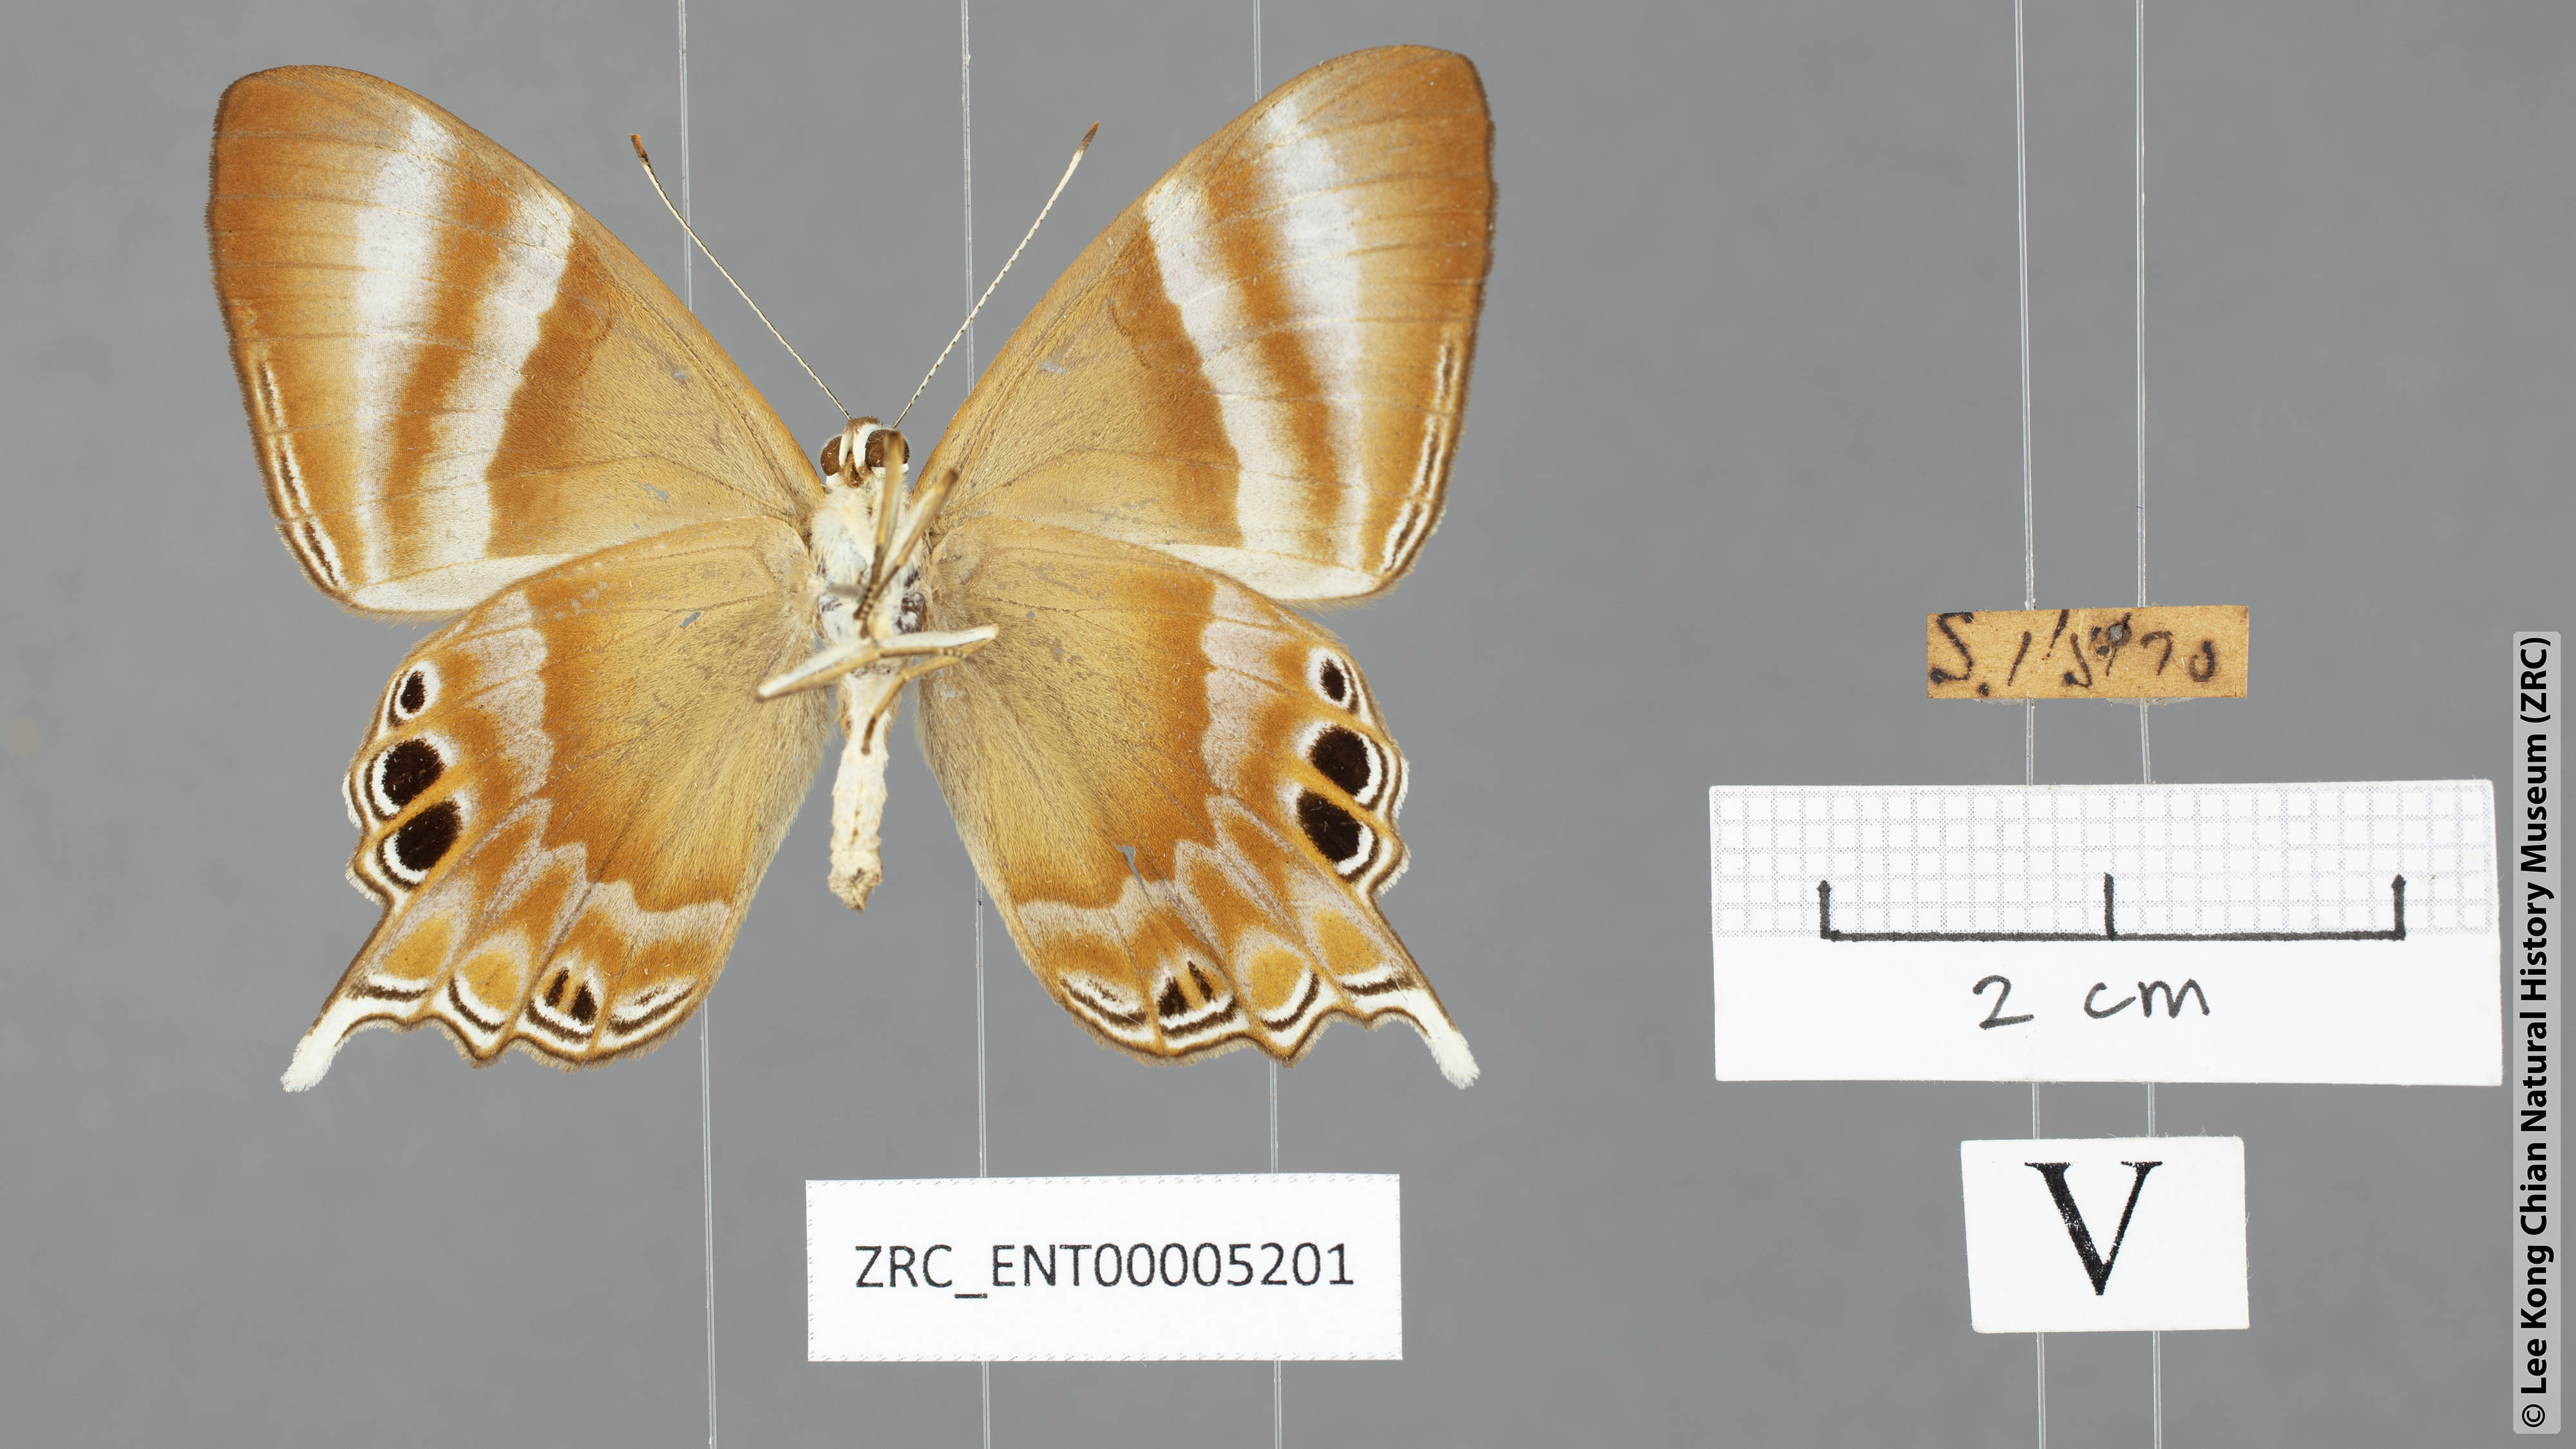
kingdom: Animalia
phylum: Arthropoda
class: Insecta
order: Lepidoptera
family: Riodinidae
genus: Archigenes
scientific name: Archigenes savitri
